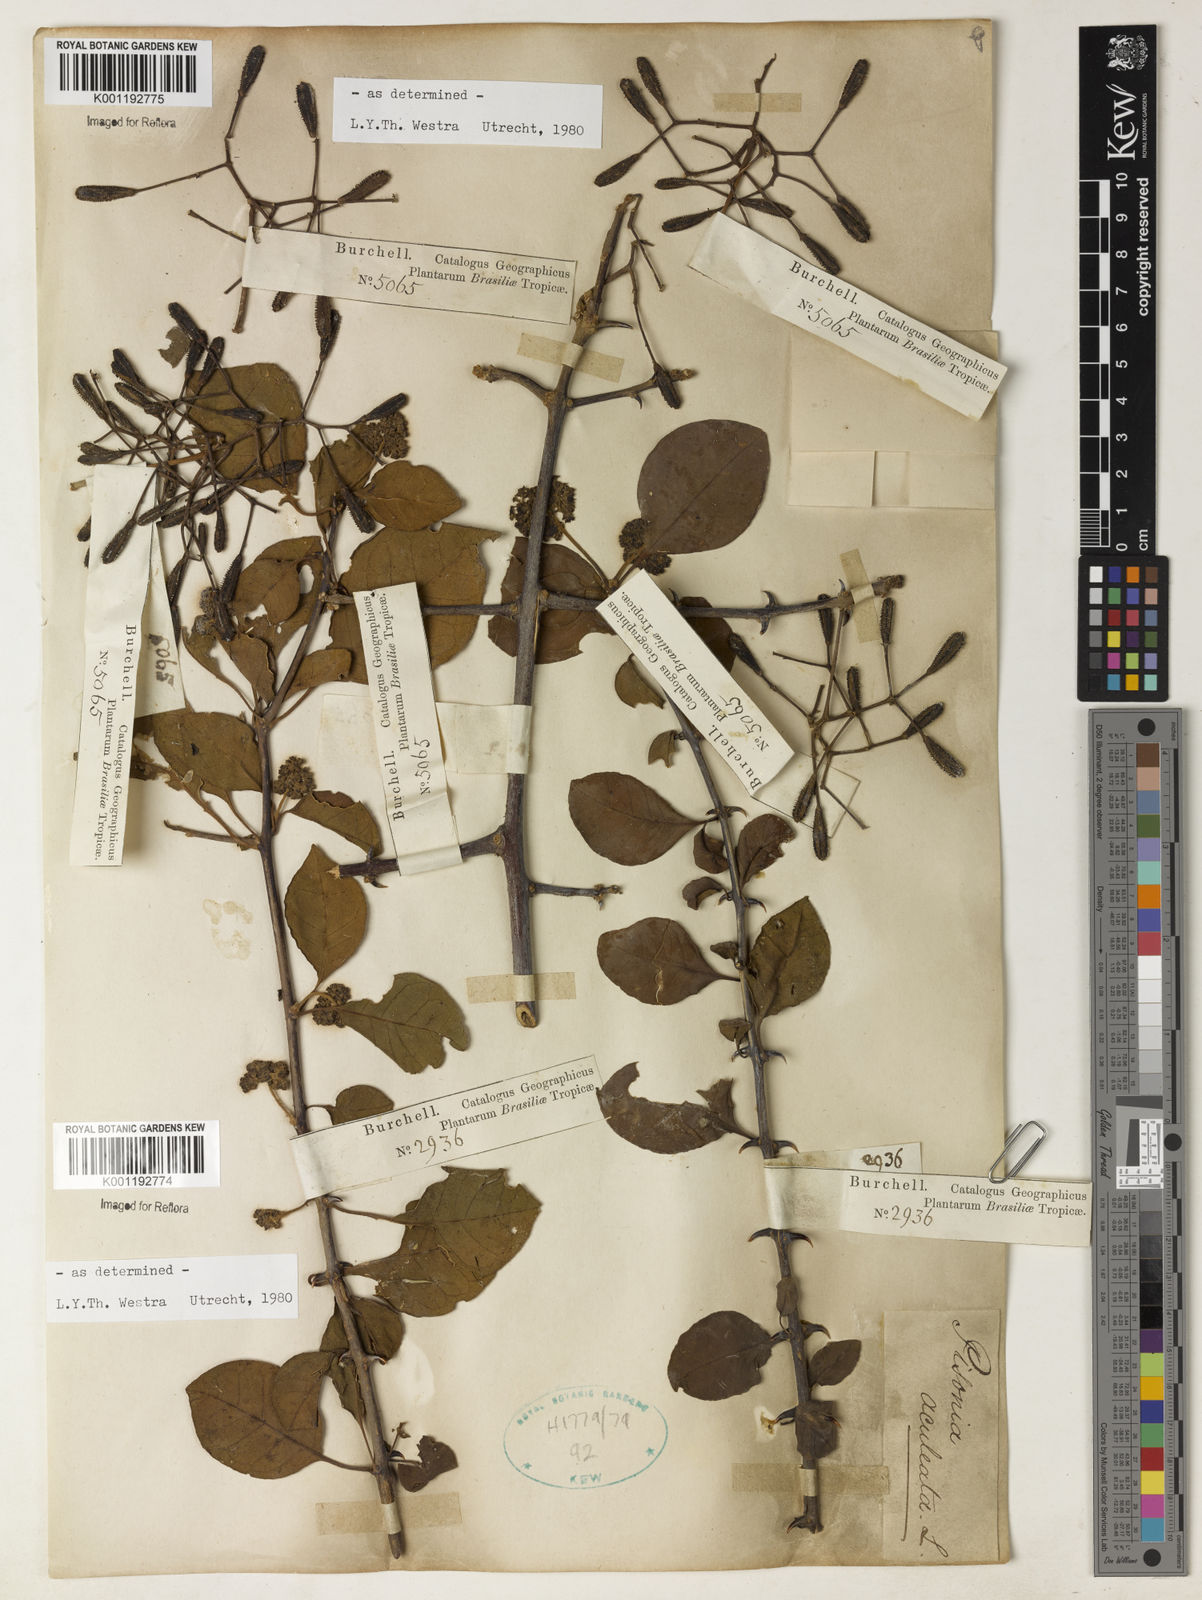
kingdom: Plantae
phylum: Tracheophyta
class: Magnoliopsida
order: Caryophyllales
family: Nyctaginaceae
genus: Pisonia
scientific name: Pisonia aculeata
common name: Cockspur vine
